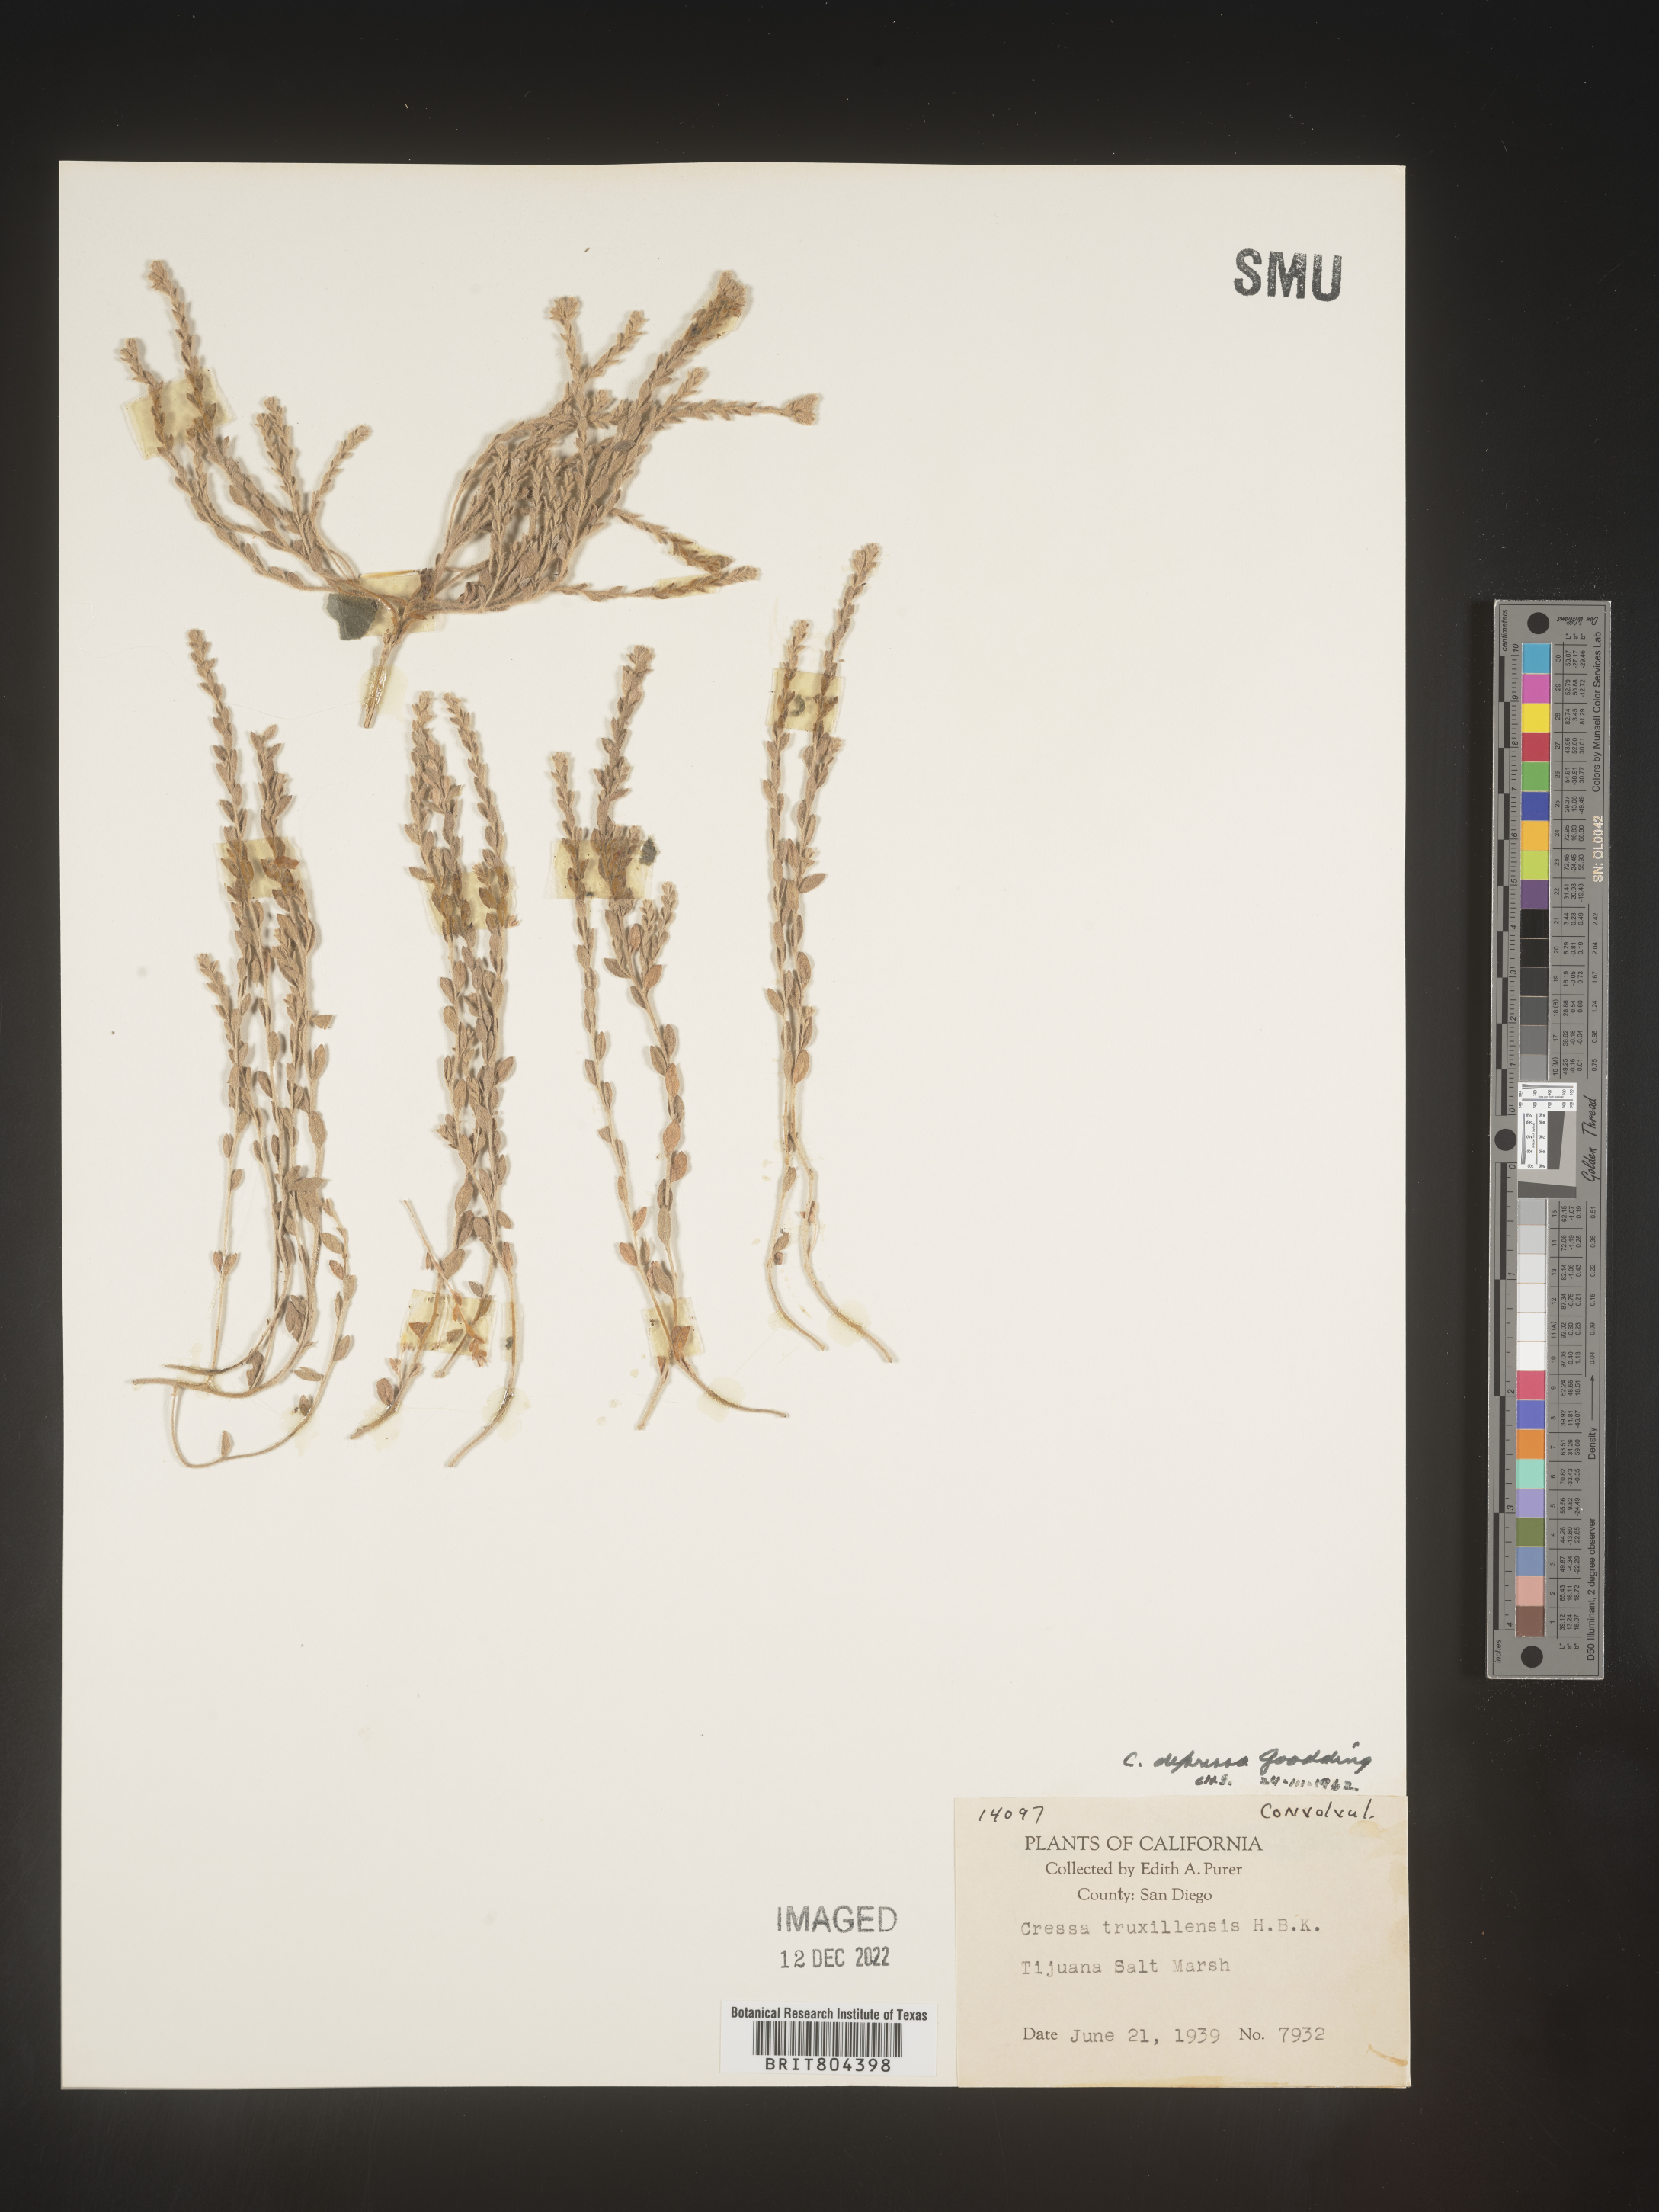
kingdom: Plantae
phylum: Tracheophyta
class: Magnoliopsida
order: Solanales
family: Convolvulaceae
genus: Cressa
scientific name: Cressa
